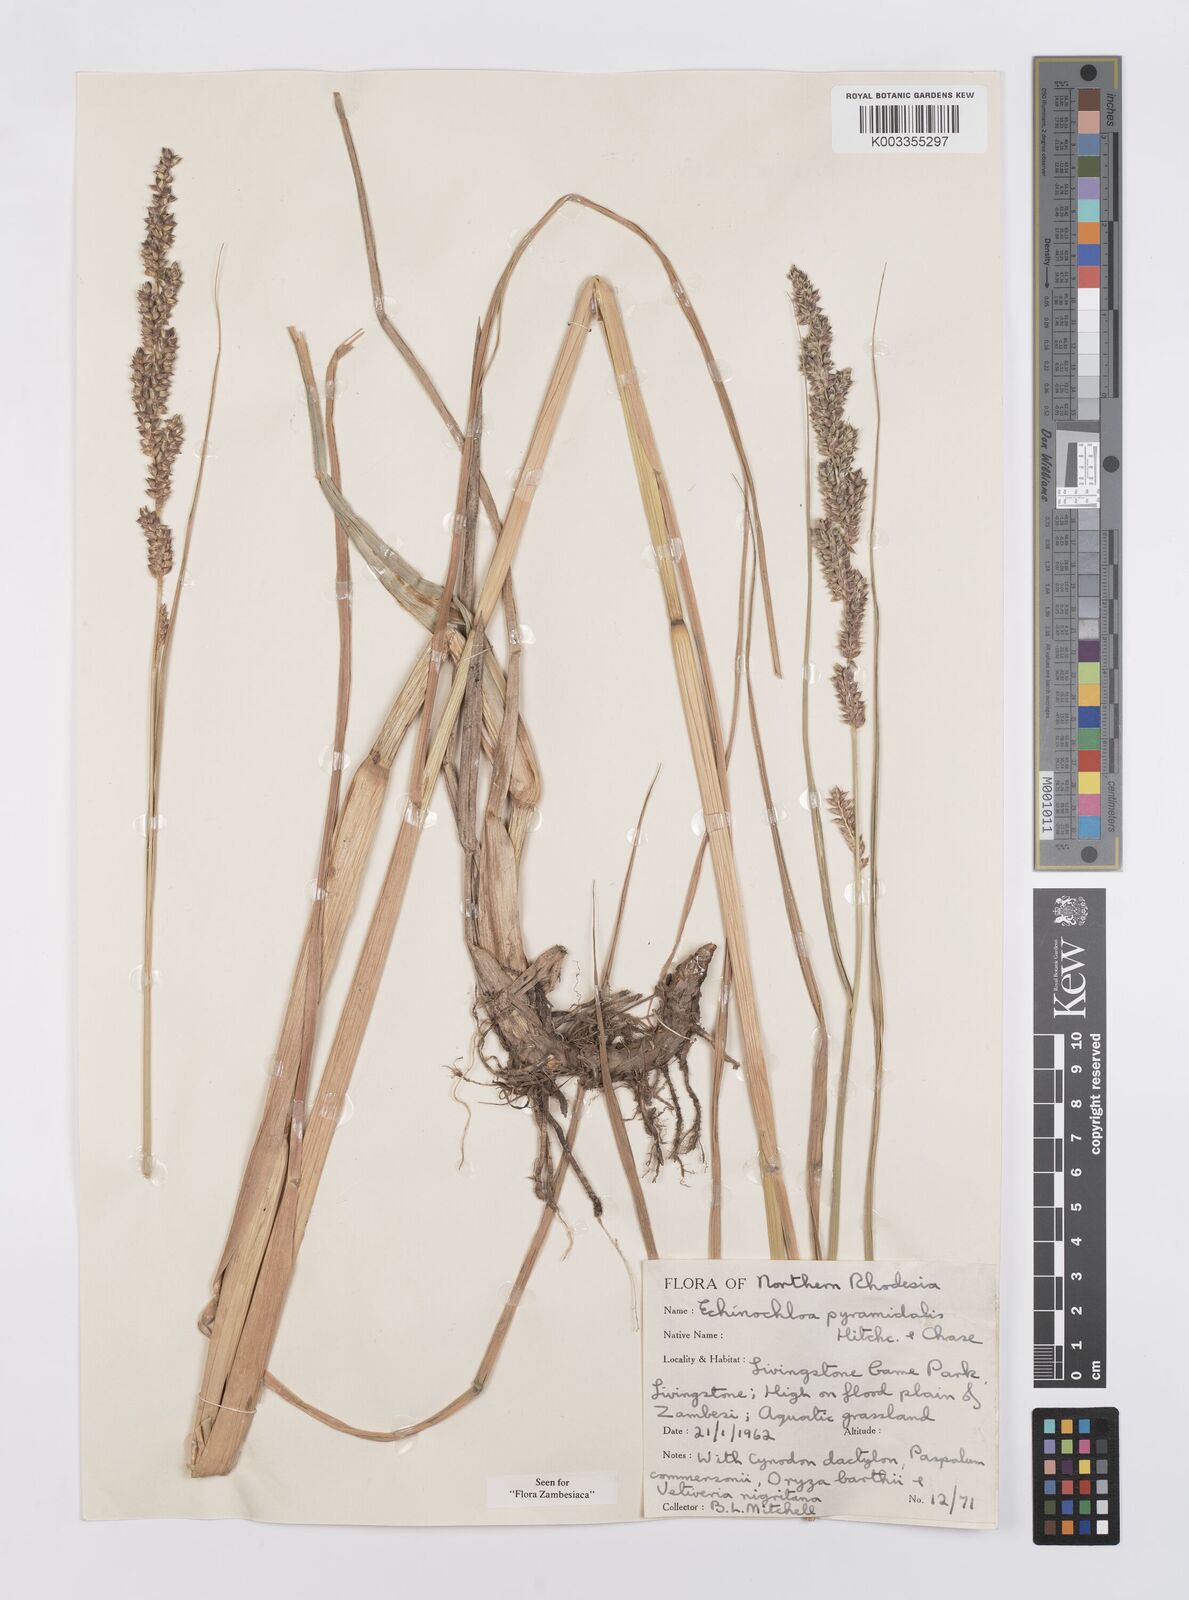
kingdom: Plantae
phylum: Tracheophyta
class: Liliopsida
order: Poales
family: Poaceae
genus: Echinochloa
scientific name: Echinochloa pyramidalis
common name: Antelope grass
